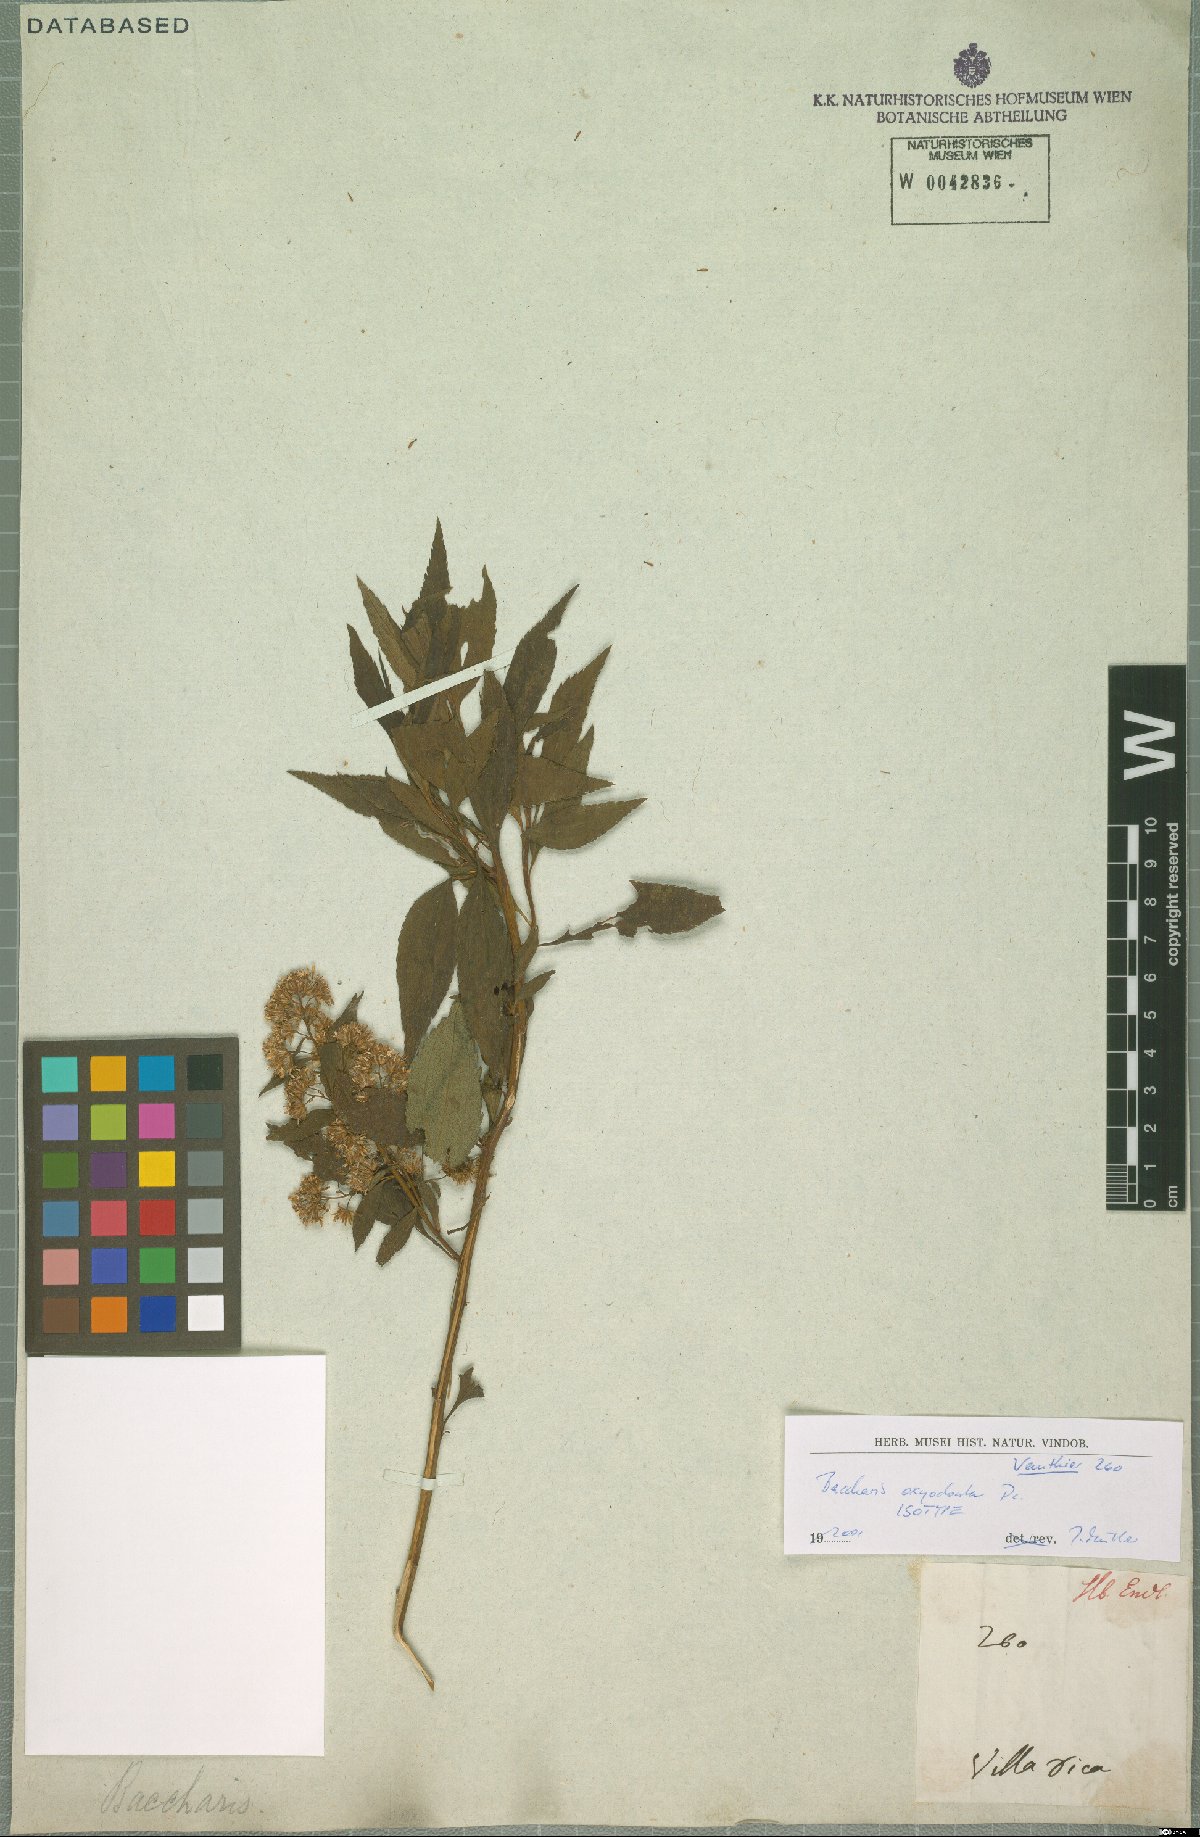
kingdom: Plantae
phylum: Tracheophyta
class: Magnoliopsida
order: Asterales
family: Asteraceae
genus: Baccharis
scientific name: Baccharis oxyodonta
